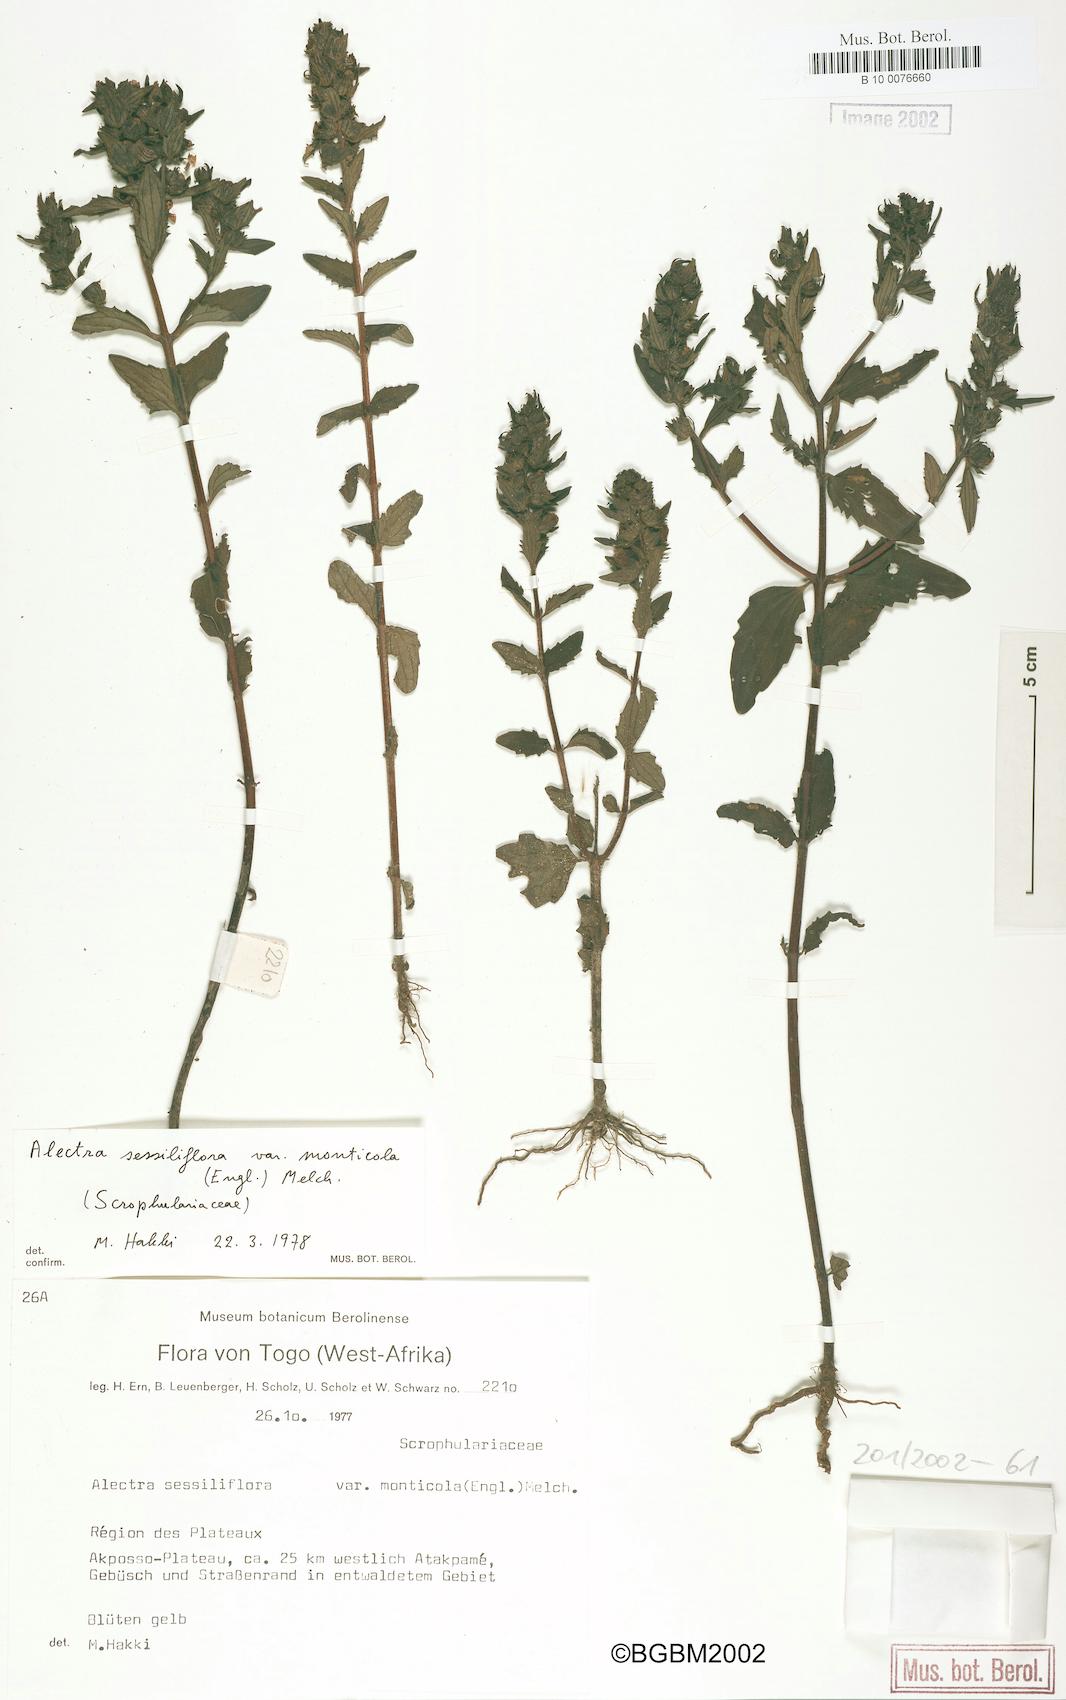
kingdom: Plantae
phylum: Tracheophyta
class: Magnoliopsida
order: Lamiales
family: Orobanchaceae
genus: Alectra
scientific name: Alectra sessiliflora
